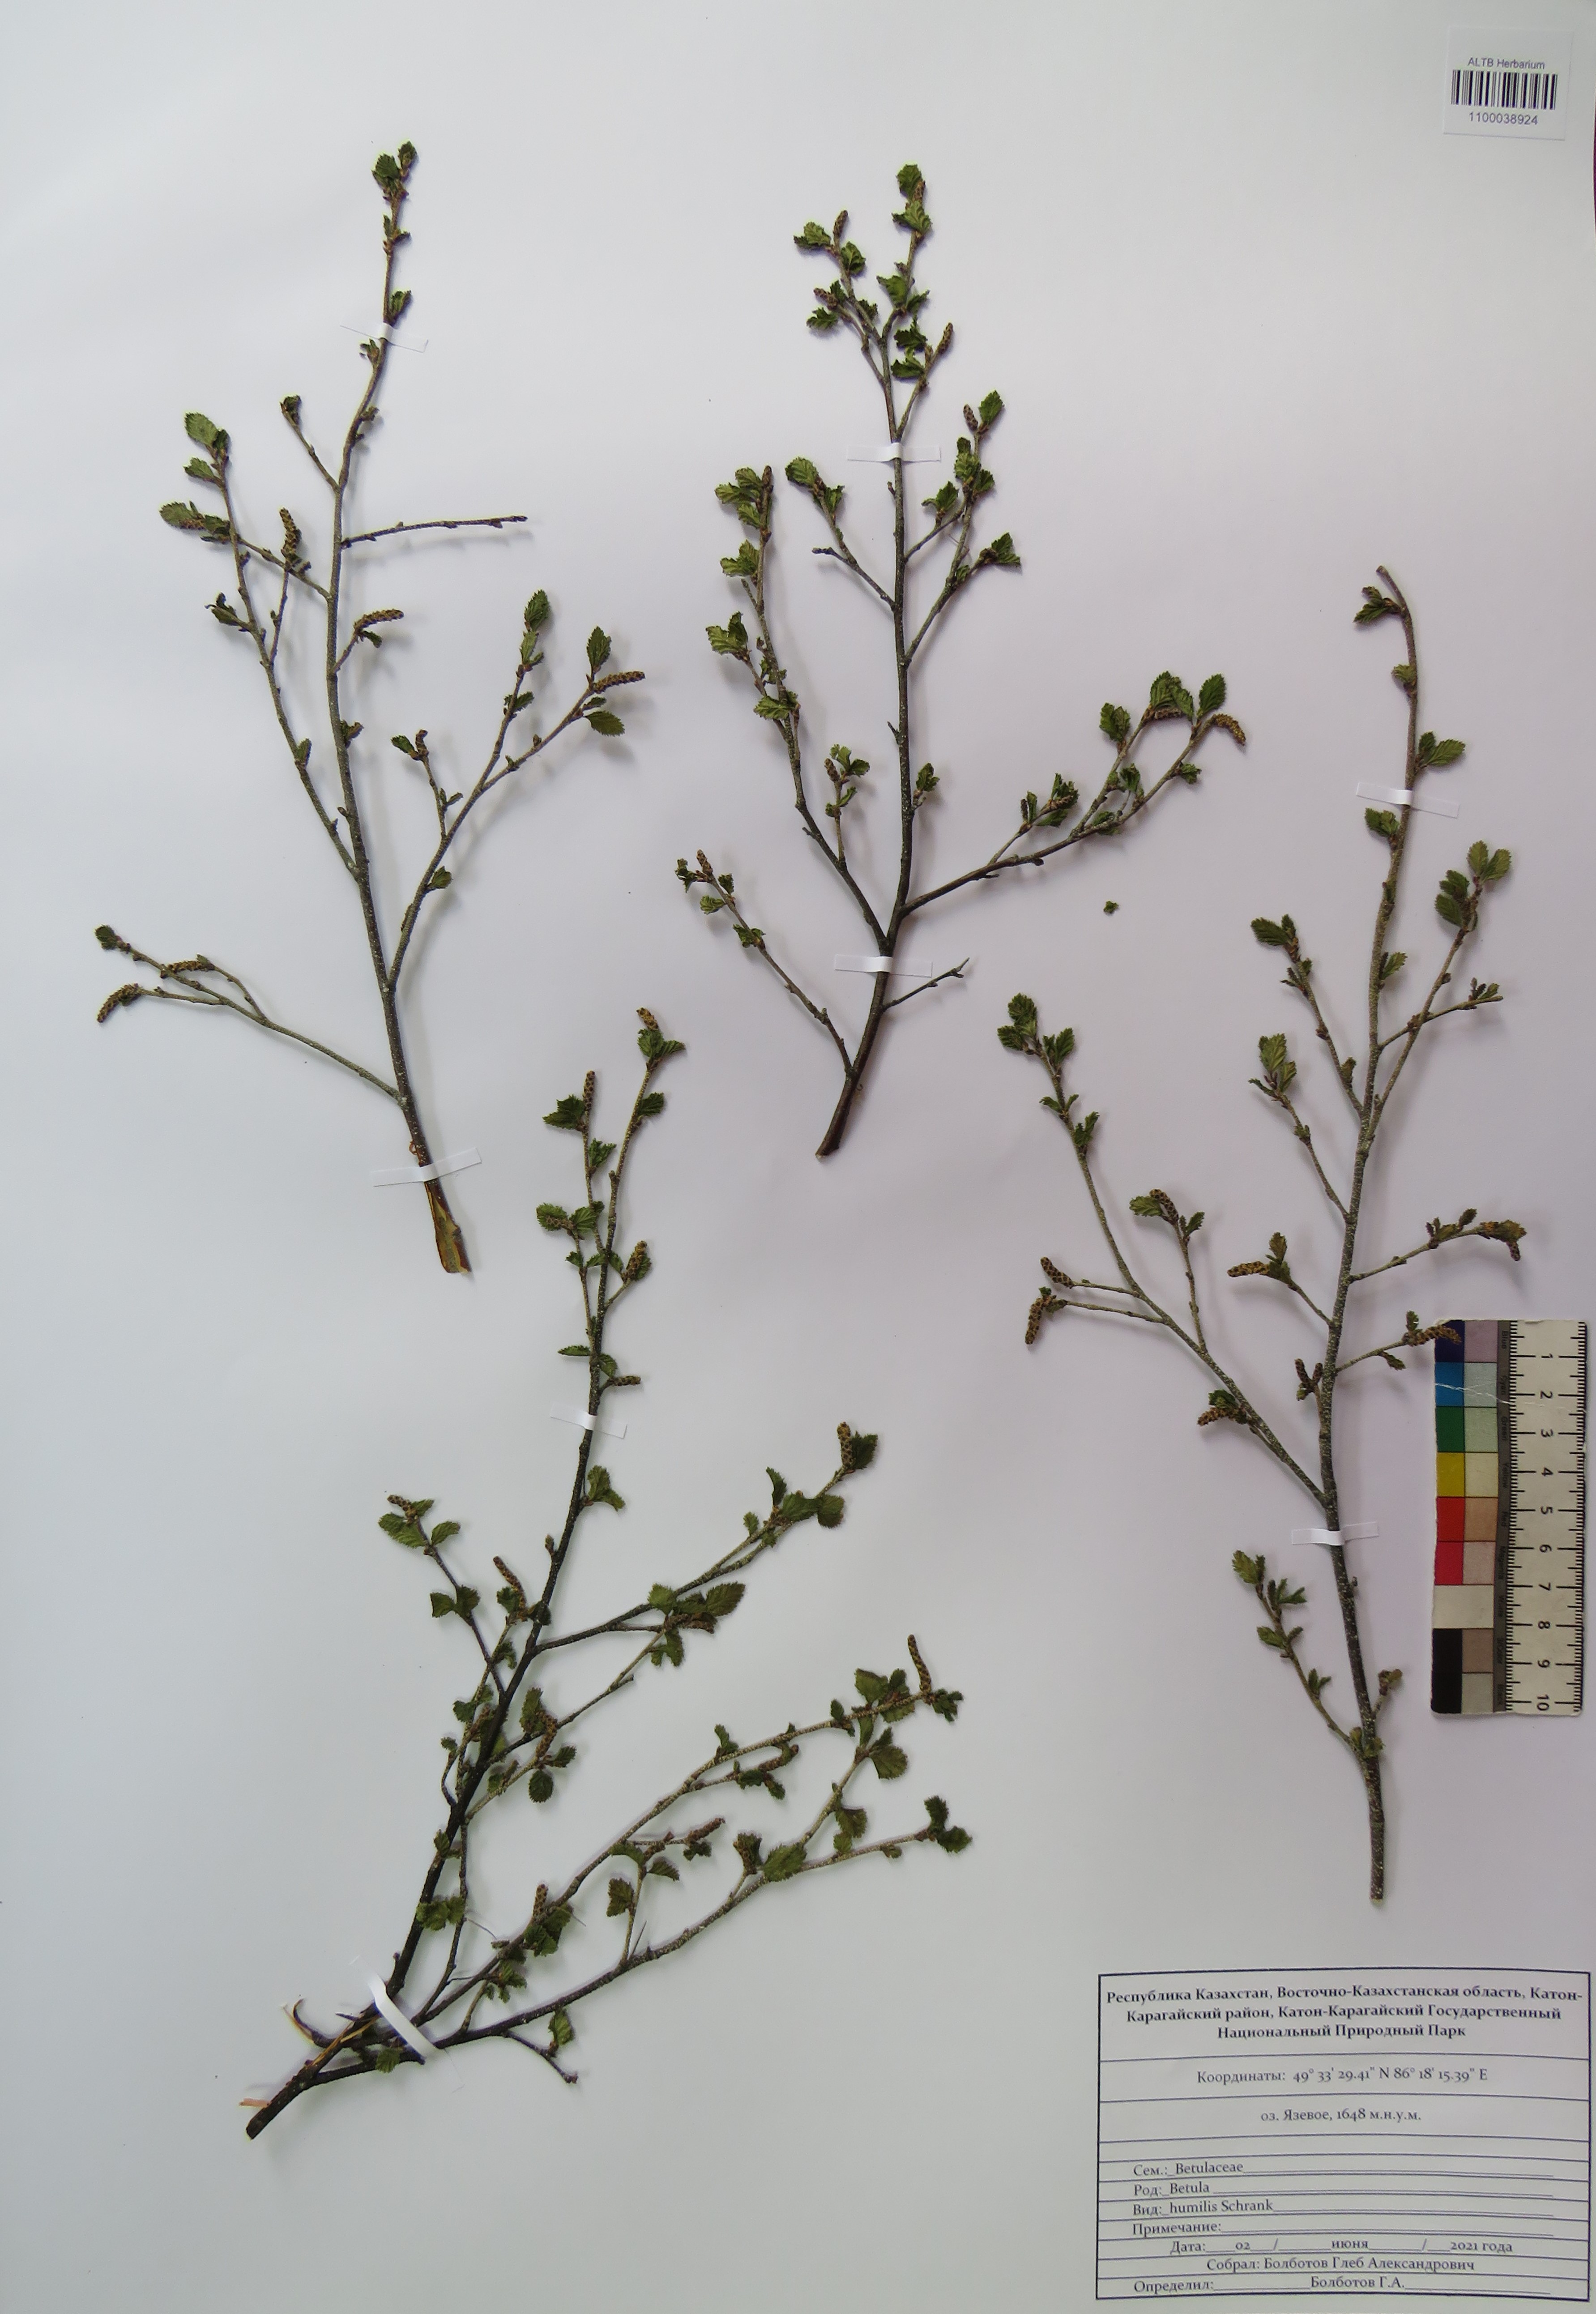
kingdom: Plantae
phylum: Tracheophyta
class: Magnoliopsida
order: Fagales
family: Betulaceae
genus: Betula
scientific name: Betula humilis
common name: Shrubby birch
